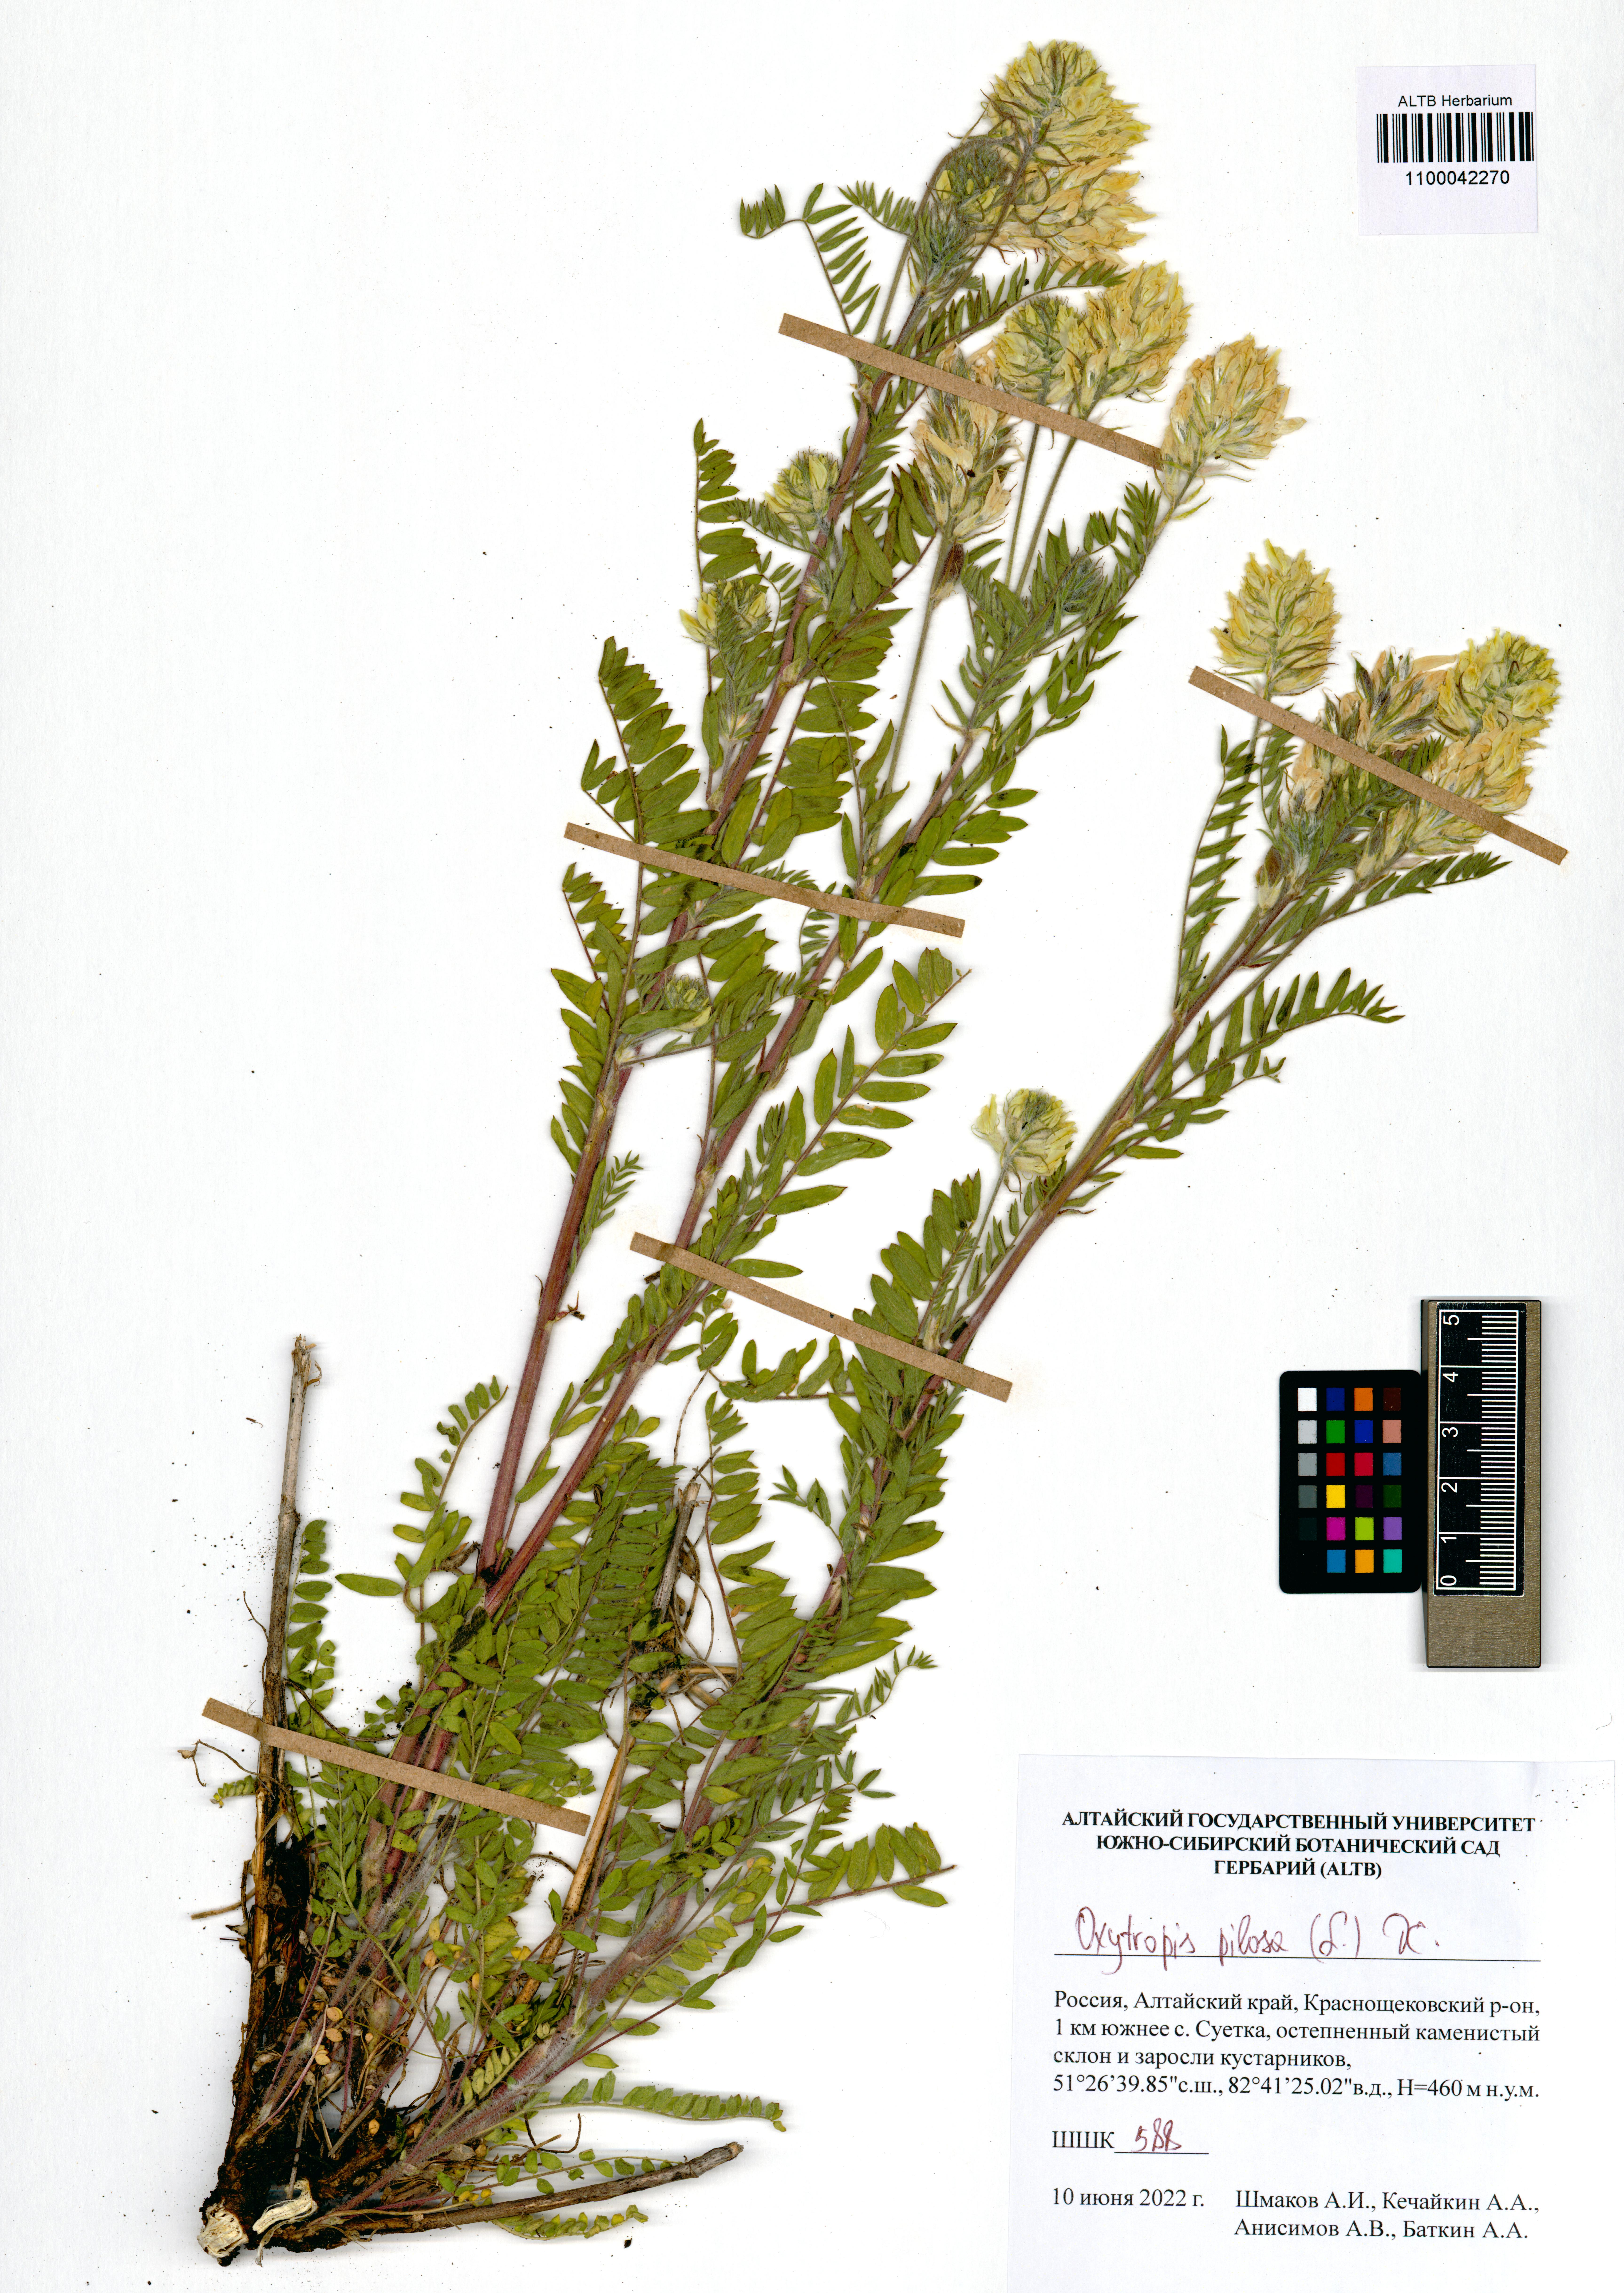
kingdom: Plantae
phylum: Tracheophyta
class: Magnoliopsida
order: Fabales
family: Fabaceae
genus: Oxytropis
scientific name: Oxytropis pilosa
